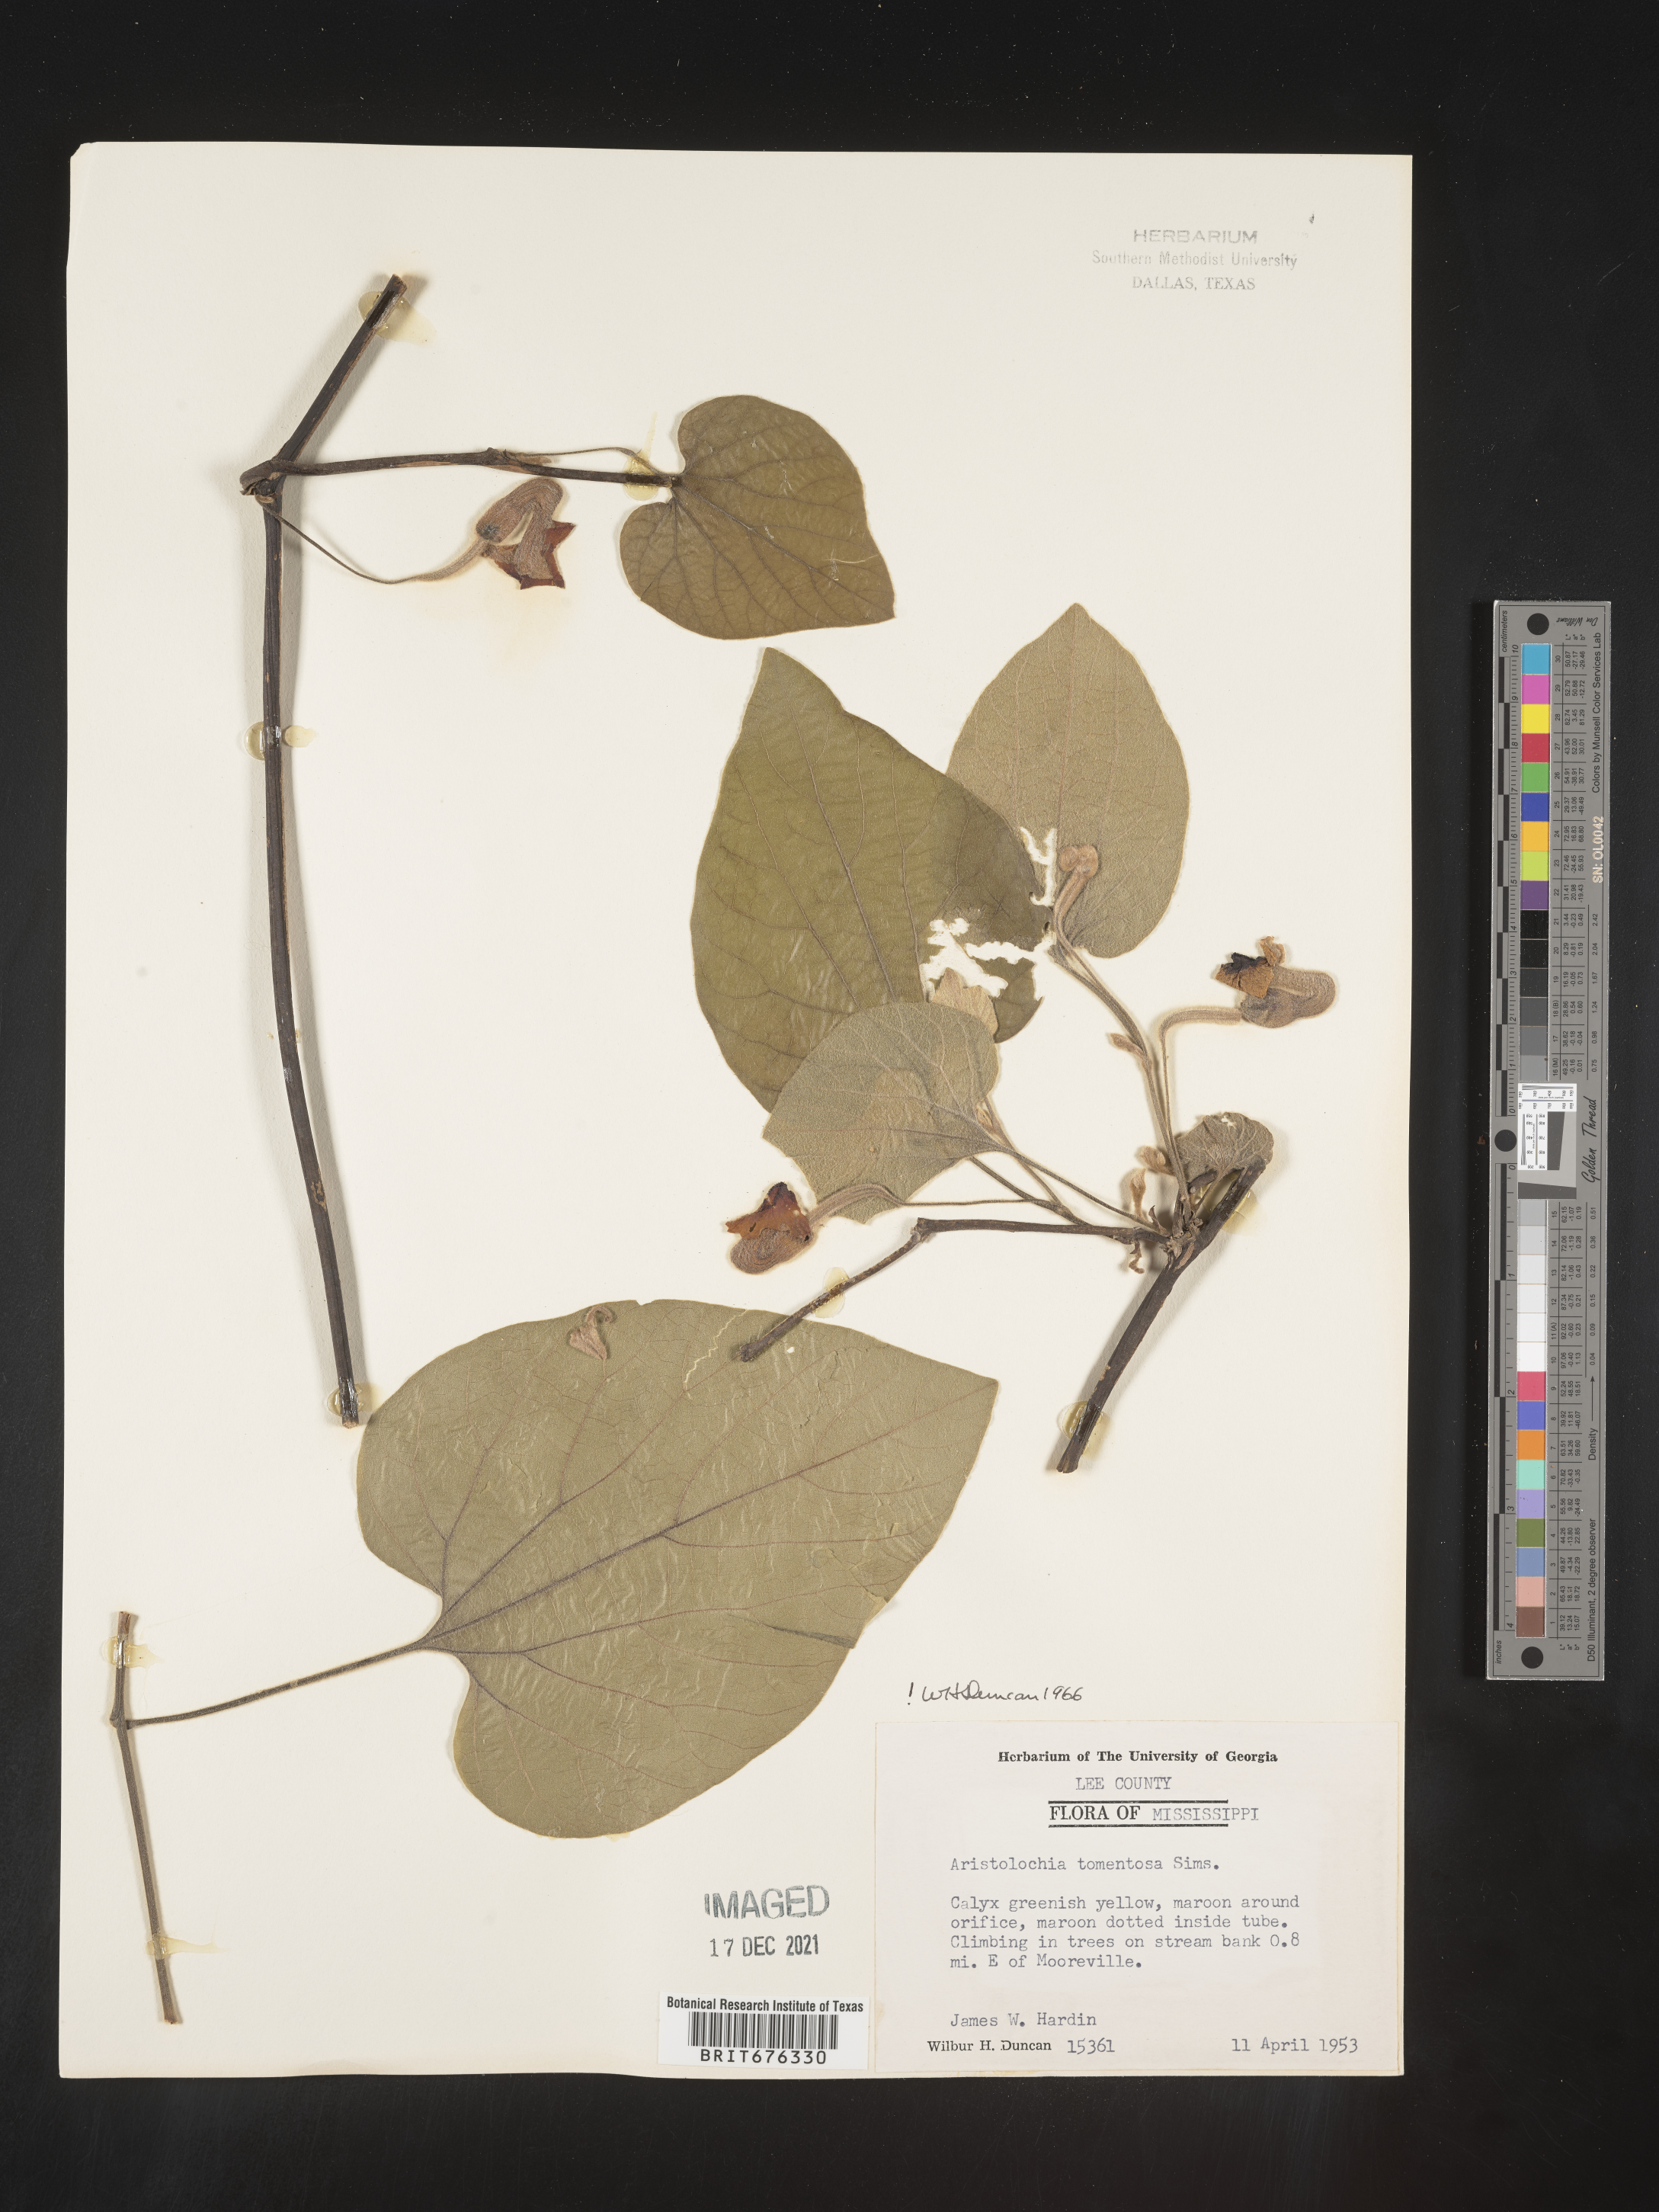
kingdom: Plantae
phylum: Tracheophyta
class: Magnoliopsida
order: Piperales
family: Aristolochiaceae
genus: Isotrema
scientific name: Isotrema tomentosum
